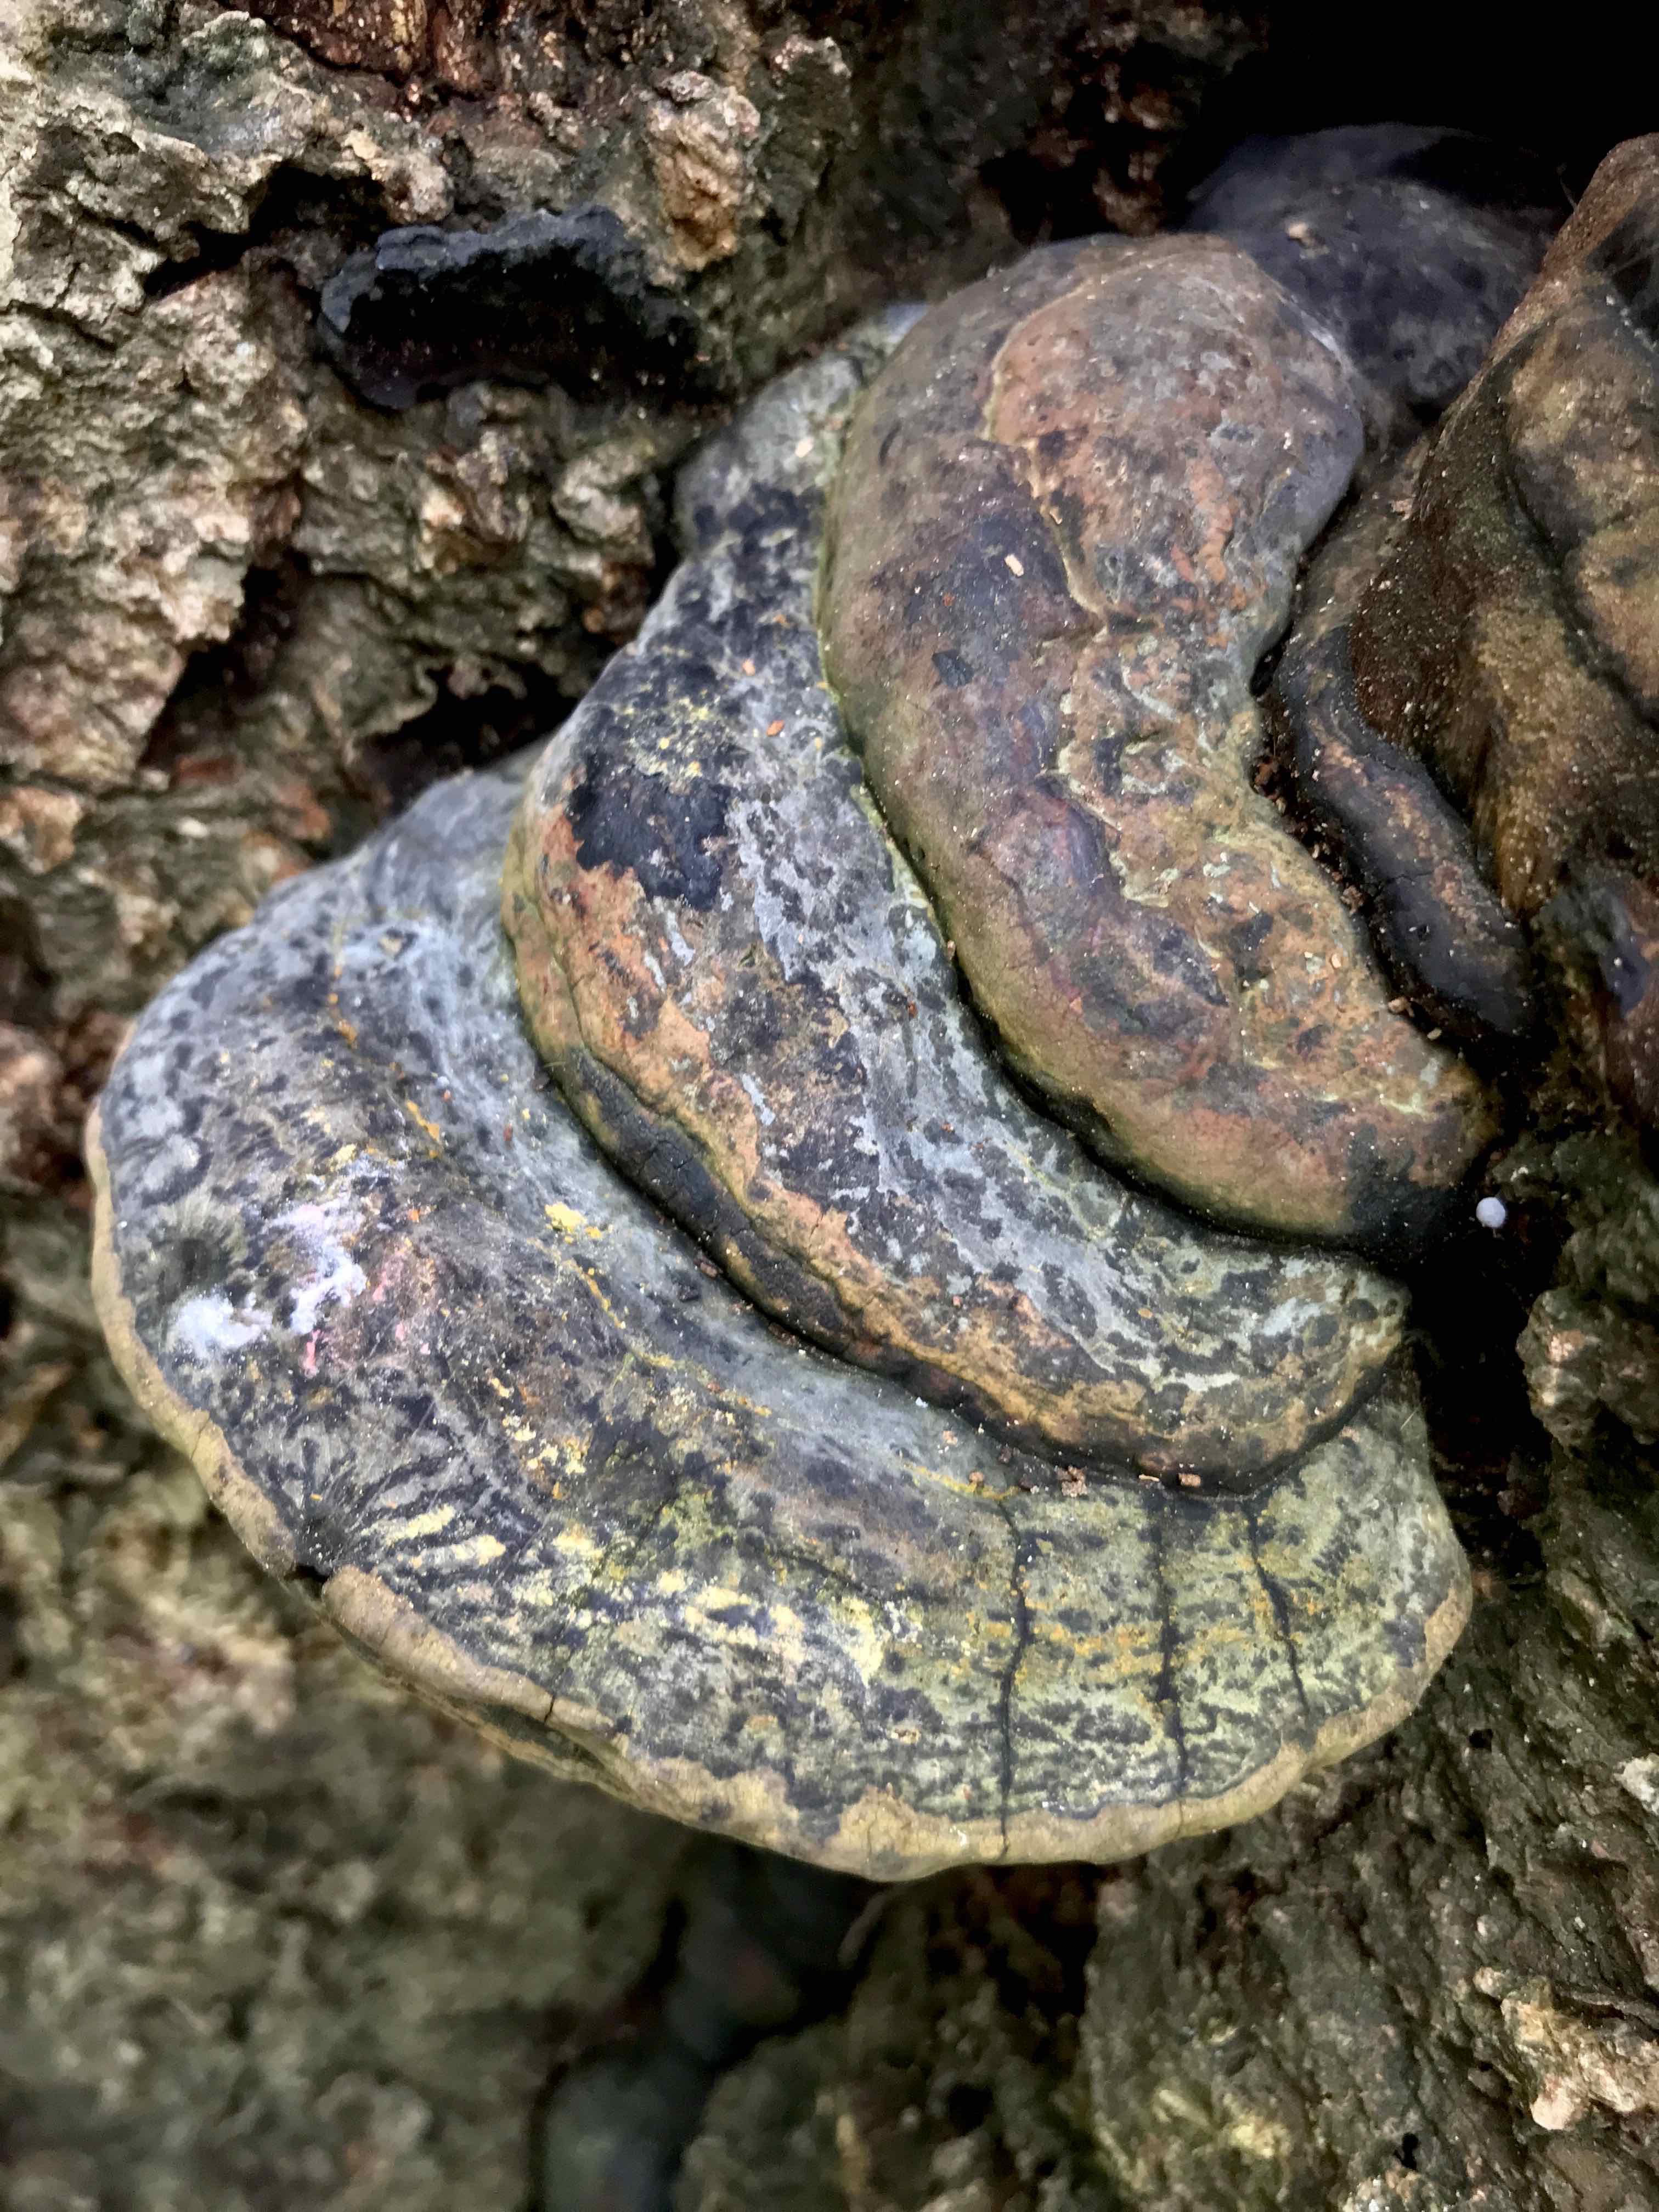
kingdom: Fungi
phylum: Basidiomycota
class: Agaricomycetes
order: Polyporales
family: Polyporaceae
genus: Ganoderma
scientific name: Ganoderma pfeifferi
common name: kobberrød lakporesvamp
